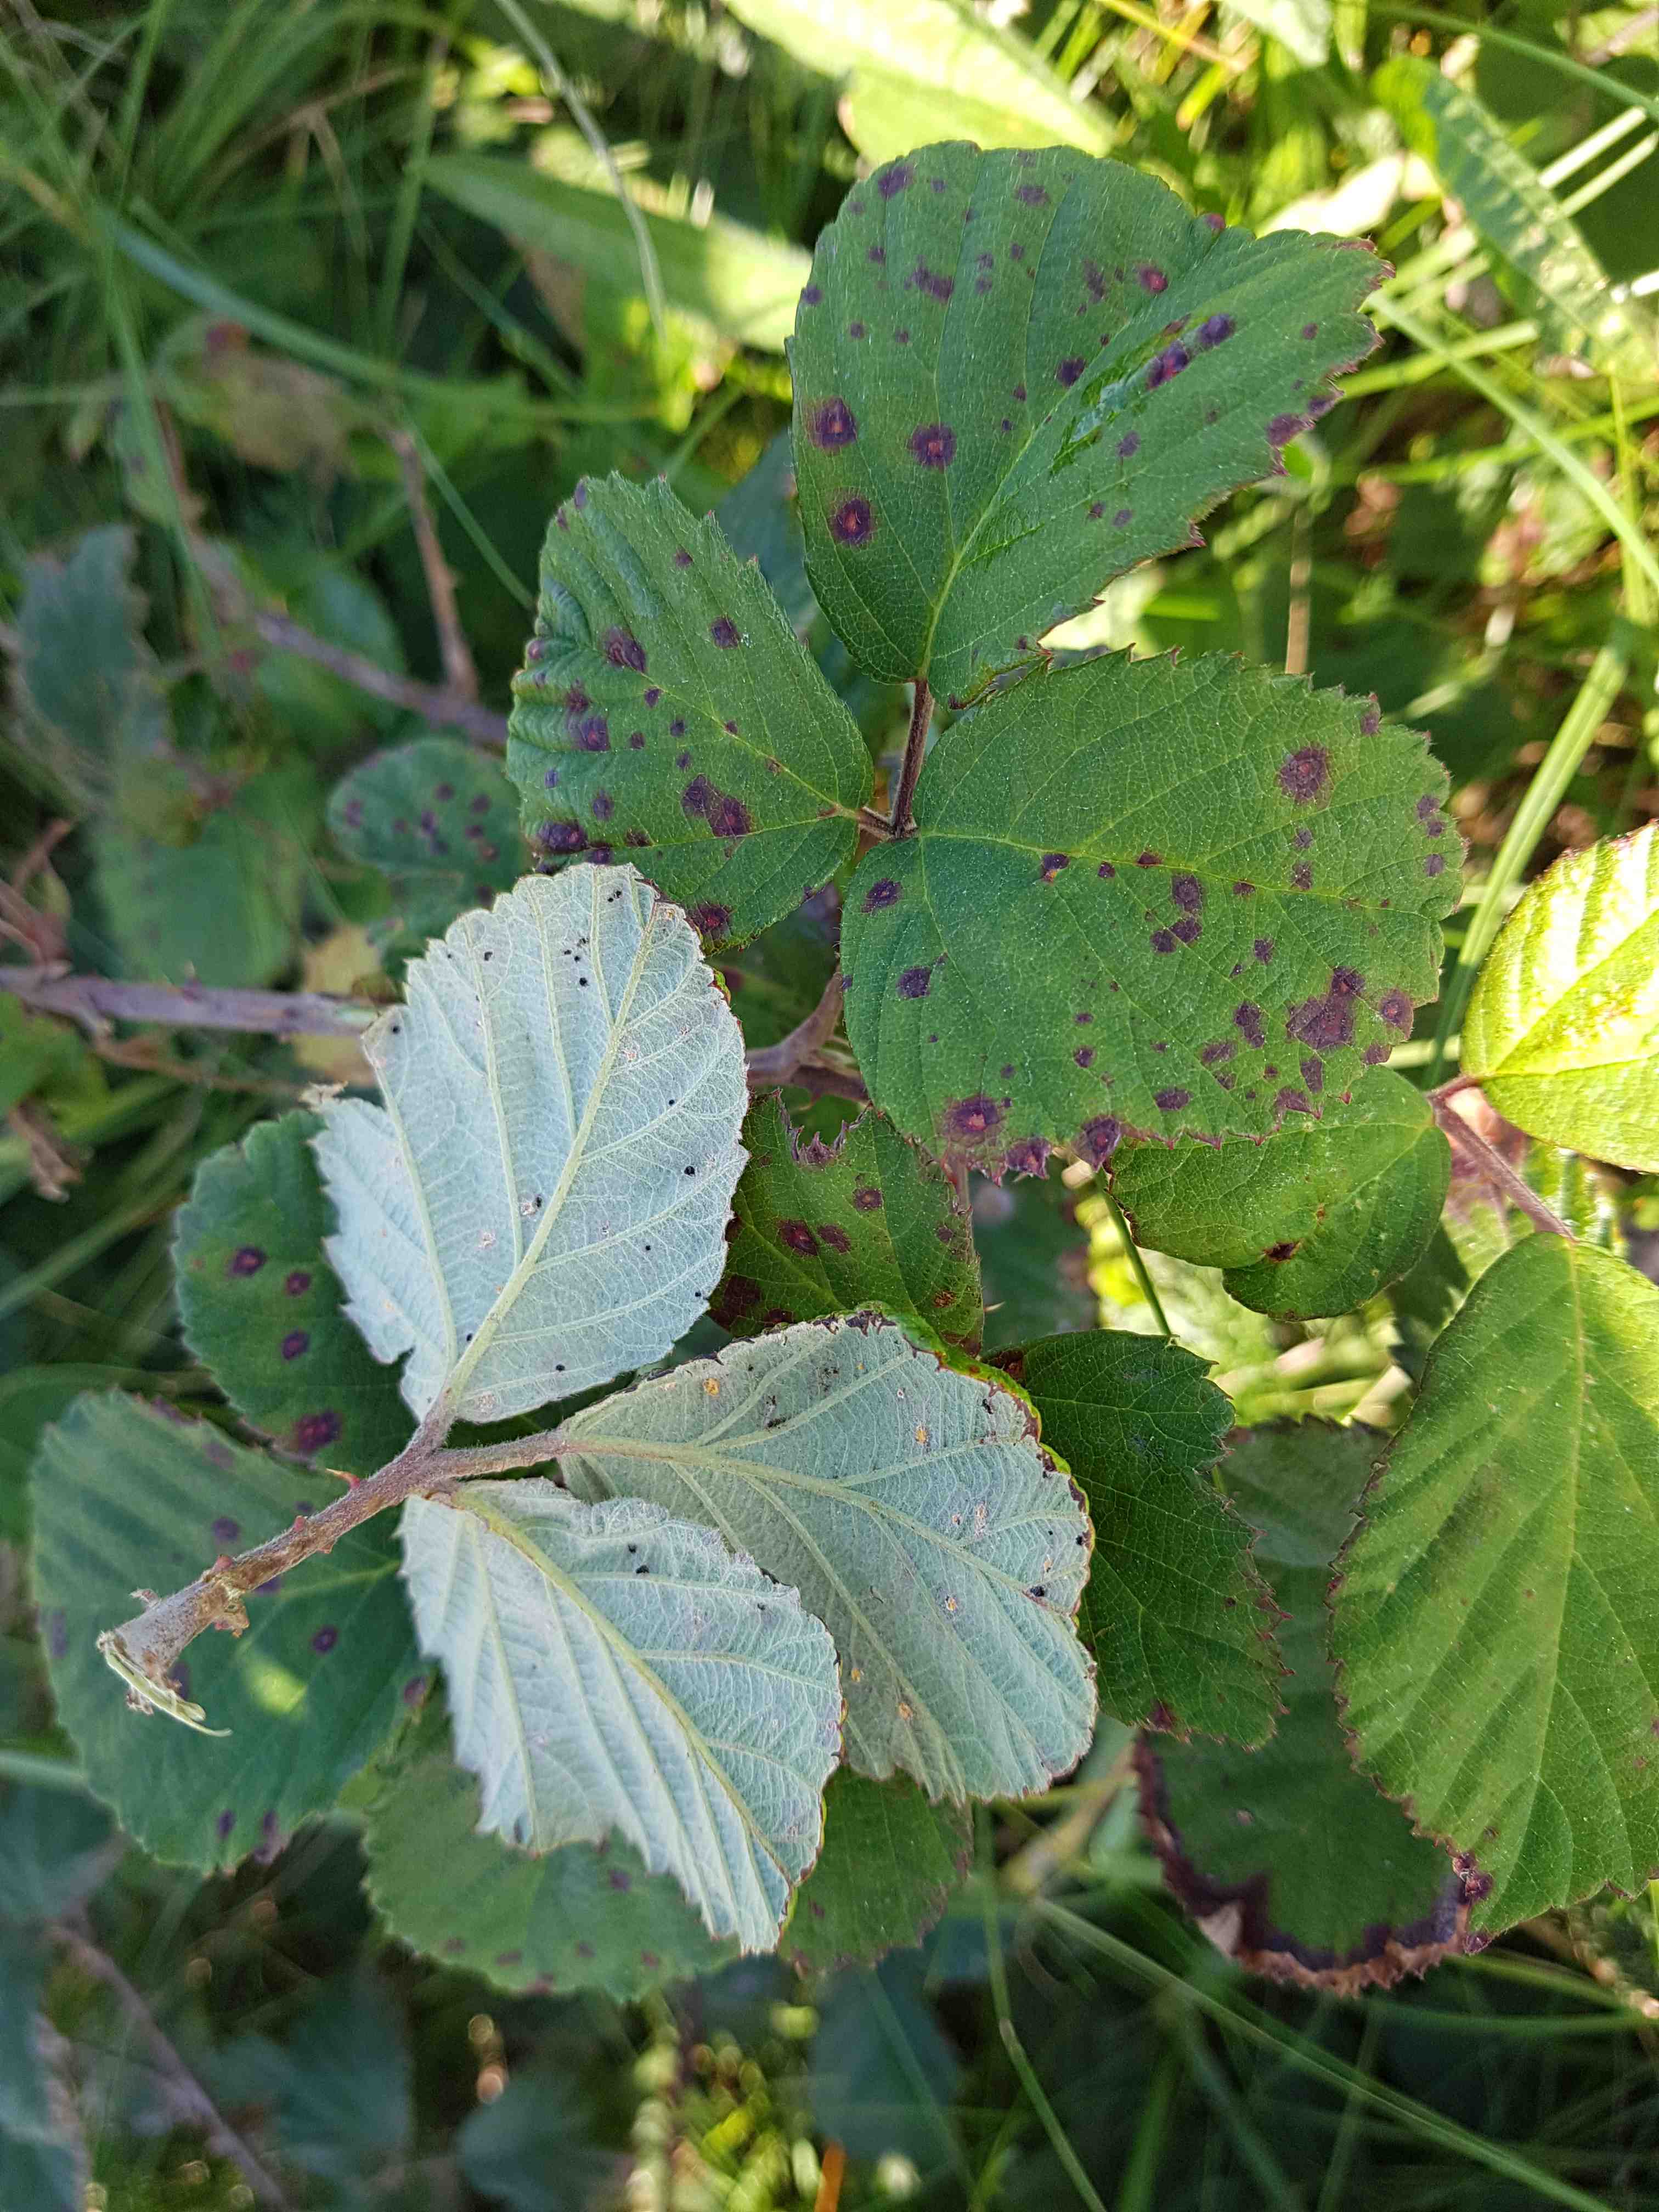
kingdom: Fungi
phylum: Basidiomycota
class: Pucciniomycetes
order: Pucciniales
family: Phragmidiaceae
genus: Phragmidium
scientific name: Phragmidium violaceum
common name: violet flercellerust
